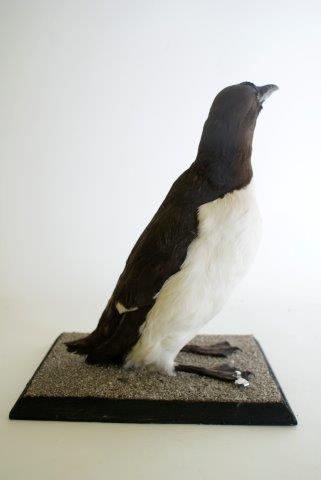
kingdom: Animalia
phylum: Chordata
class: Aves
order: Charadriiformes
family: Alcidae
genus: Uria
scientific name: Uria lomvia
